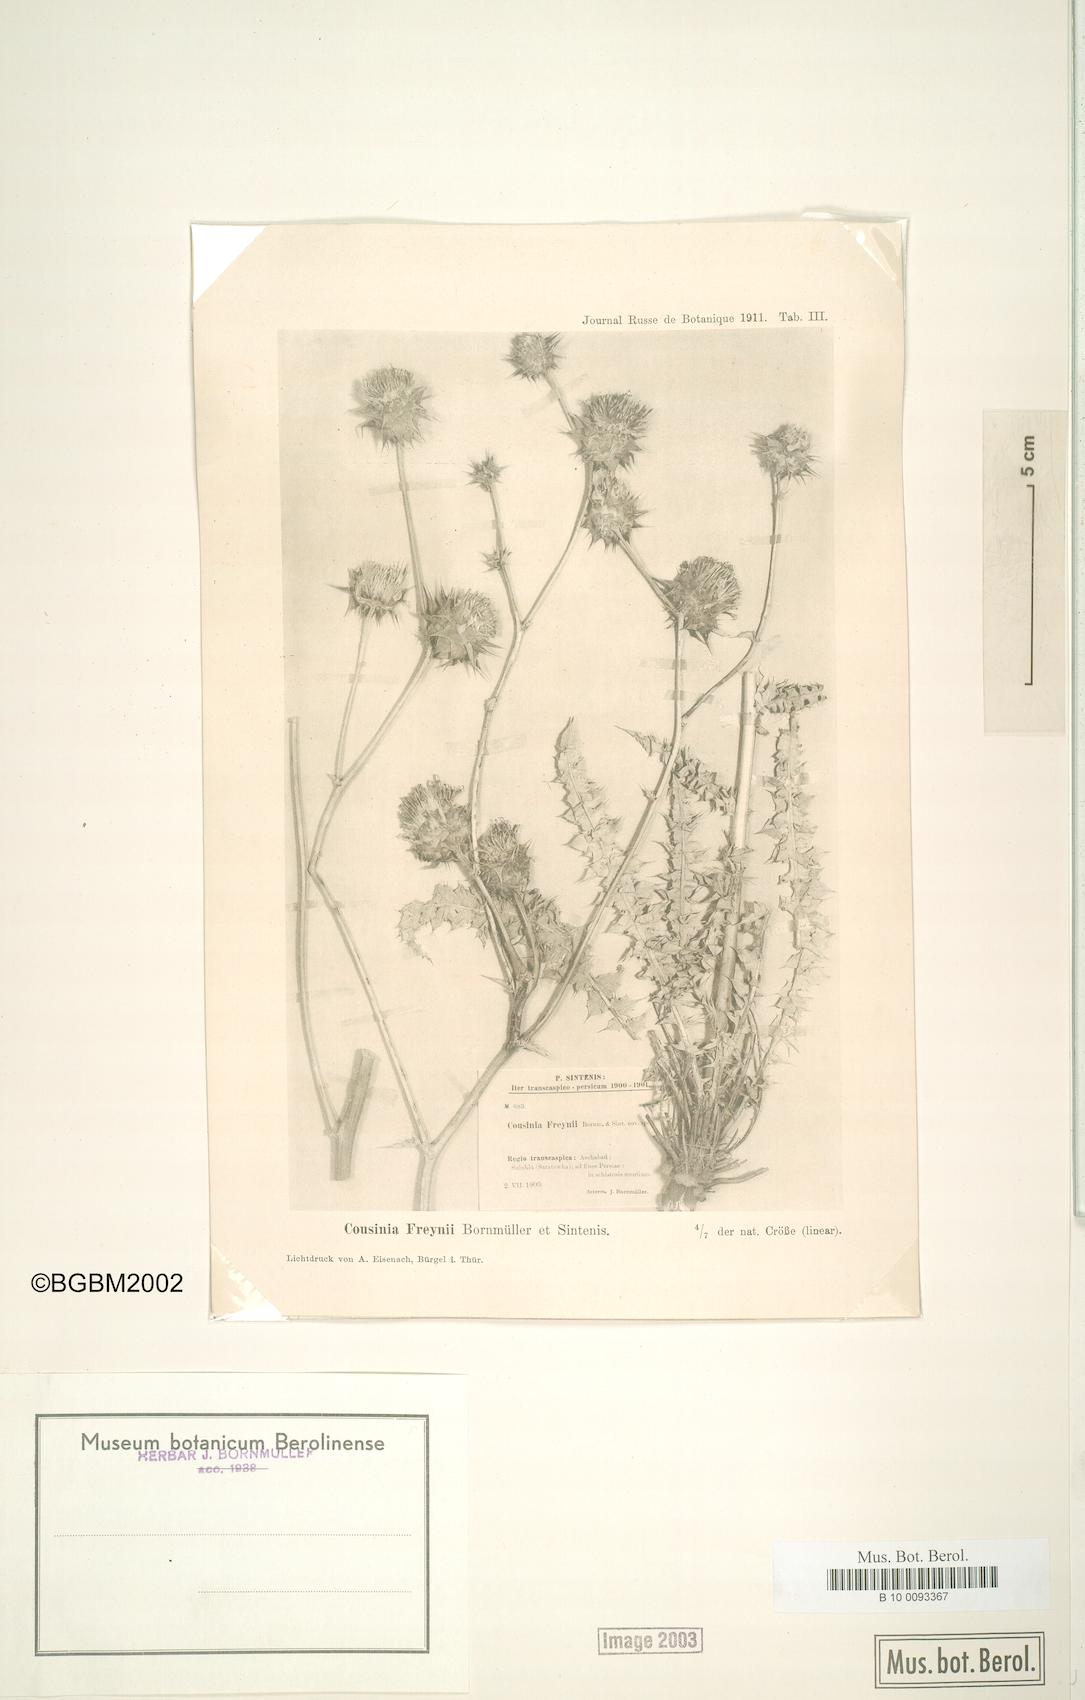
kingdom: Plantae
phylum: Tracheophyta
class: Magnoliopsida
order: Asterales
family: Asteraceae
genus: Cousinia
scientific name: Cousinia freynii
